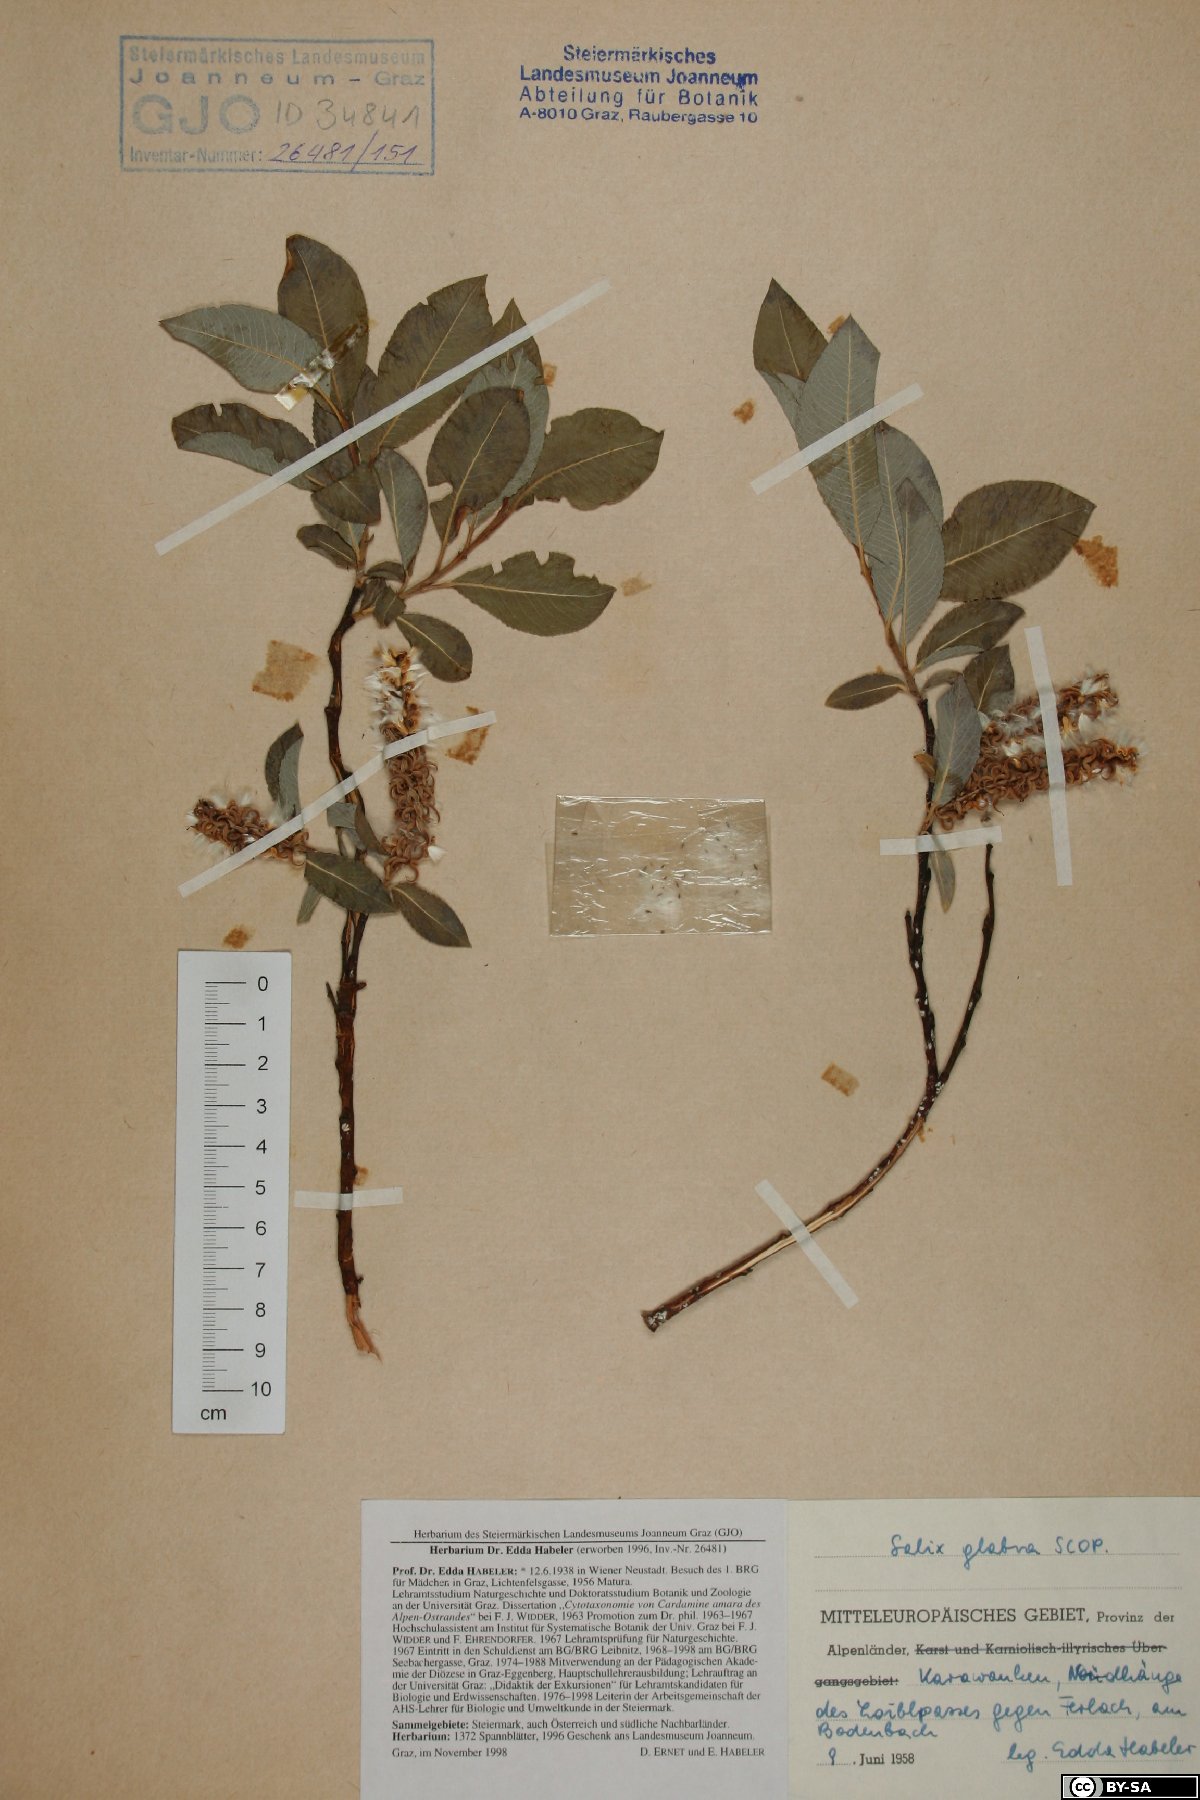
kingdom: Plantae
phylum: Tracheophyta
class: Magnoliopsida
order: Malpighiales
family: Salicaceae
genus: Salix
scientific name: Salix glabra
